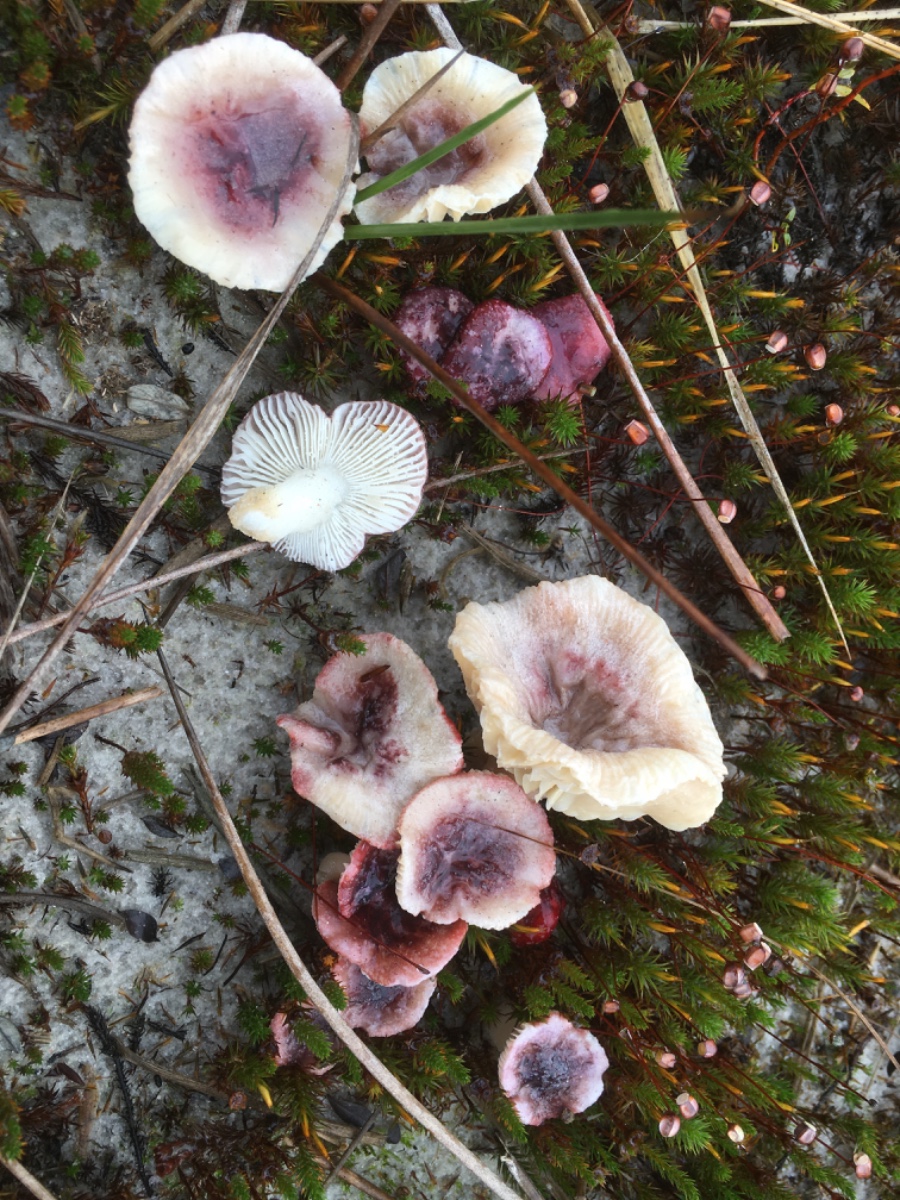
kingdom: Fungi
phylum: Basidiomycota
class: Agaricomycetes
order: Russulales
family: Russulaceae
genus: Russula
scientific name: Russula laccata
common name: klit-skørhat
